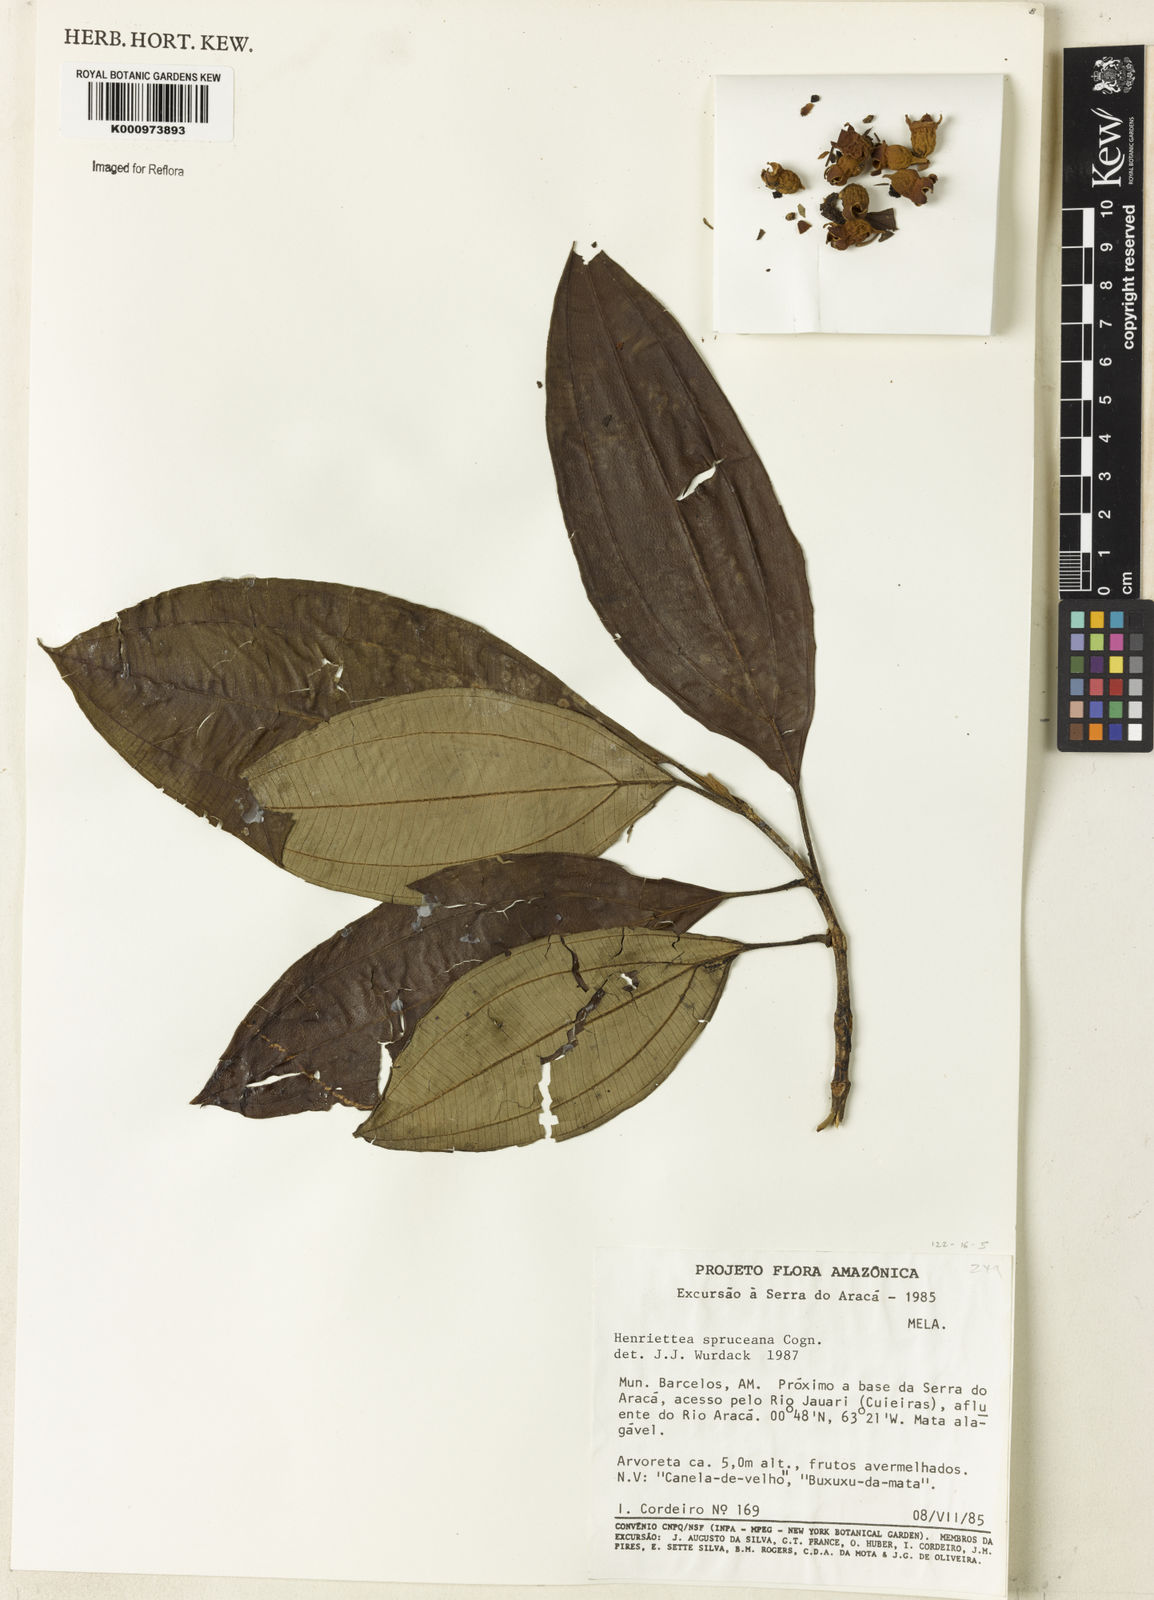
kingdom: Plantae
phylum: Tracheophyta
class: Magnoliopsida
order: Myrtales
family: Melastomataceae
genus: Henriettea
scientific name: Henriettea spruceana
